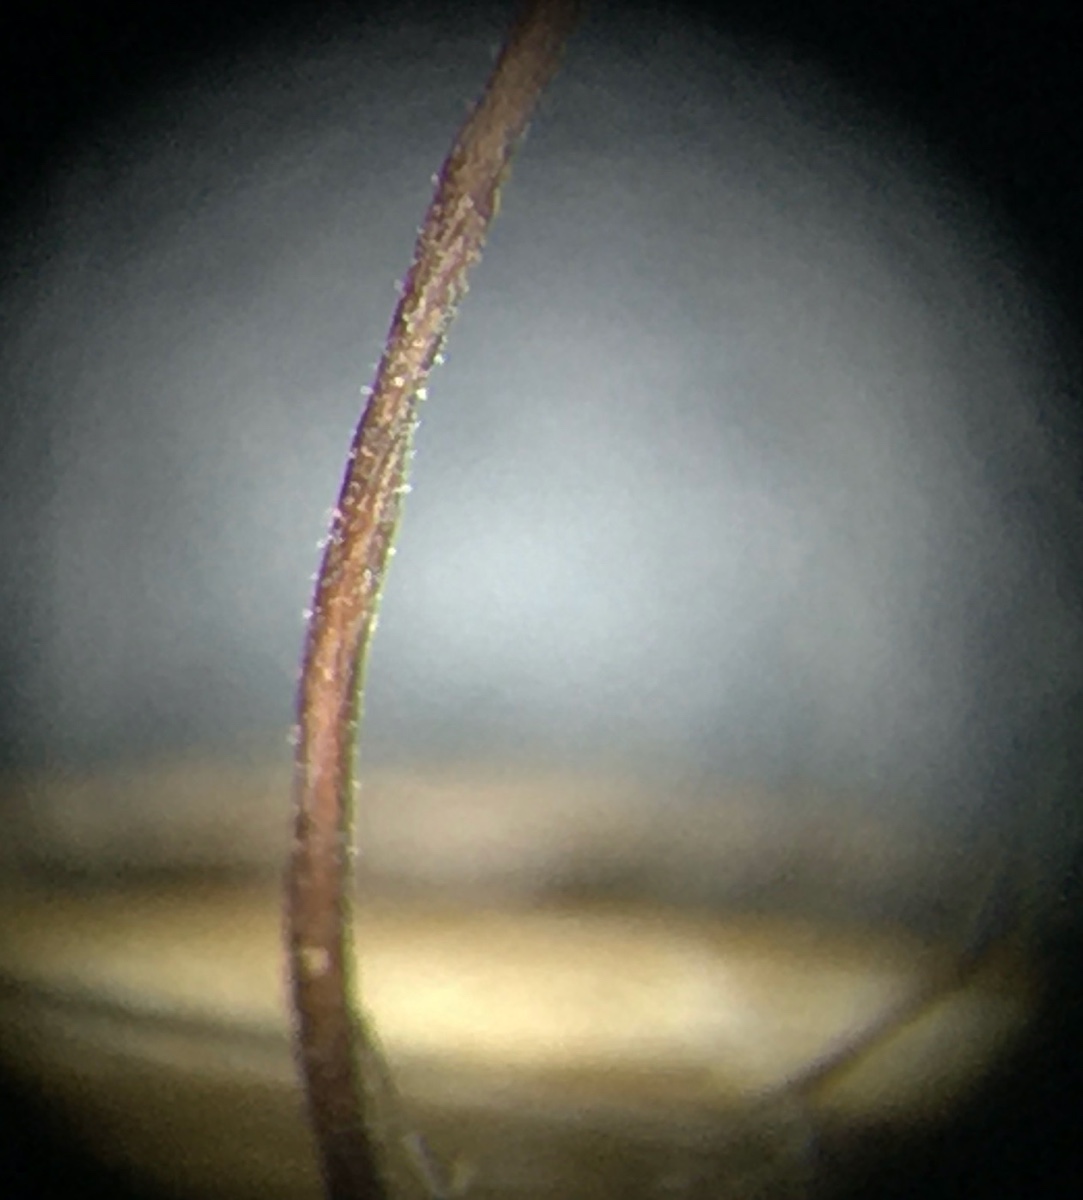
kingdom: Fungi
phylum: Basidiomycota
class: Agaricomycetes
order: Agaricales
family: Typhulaceae
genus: Typhula
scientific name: Typhula erythropus
